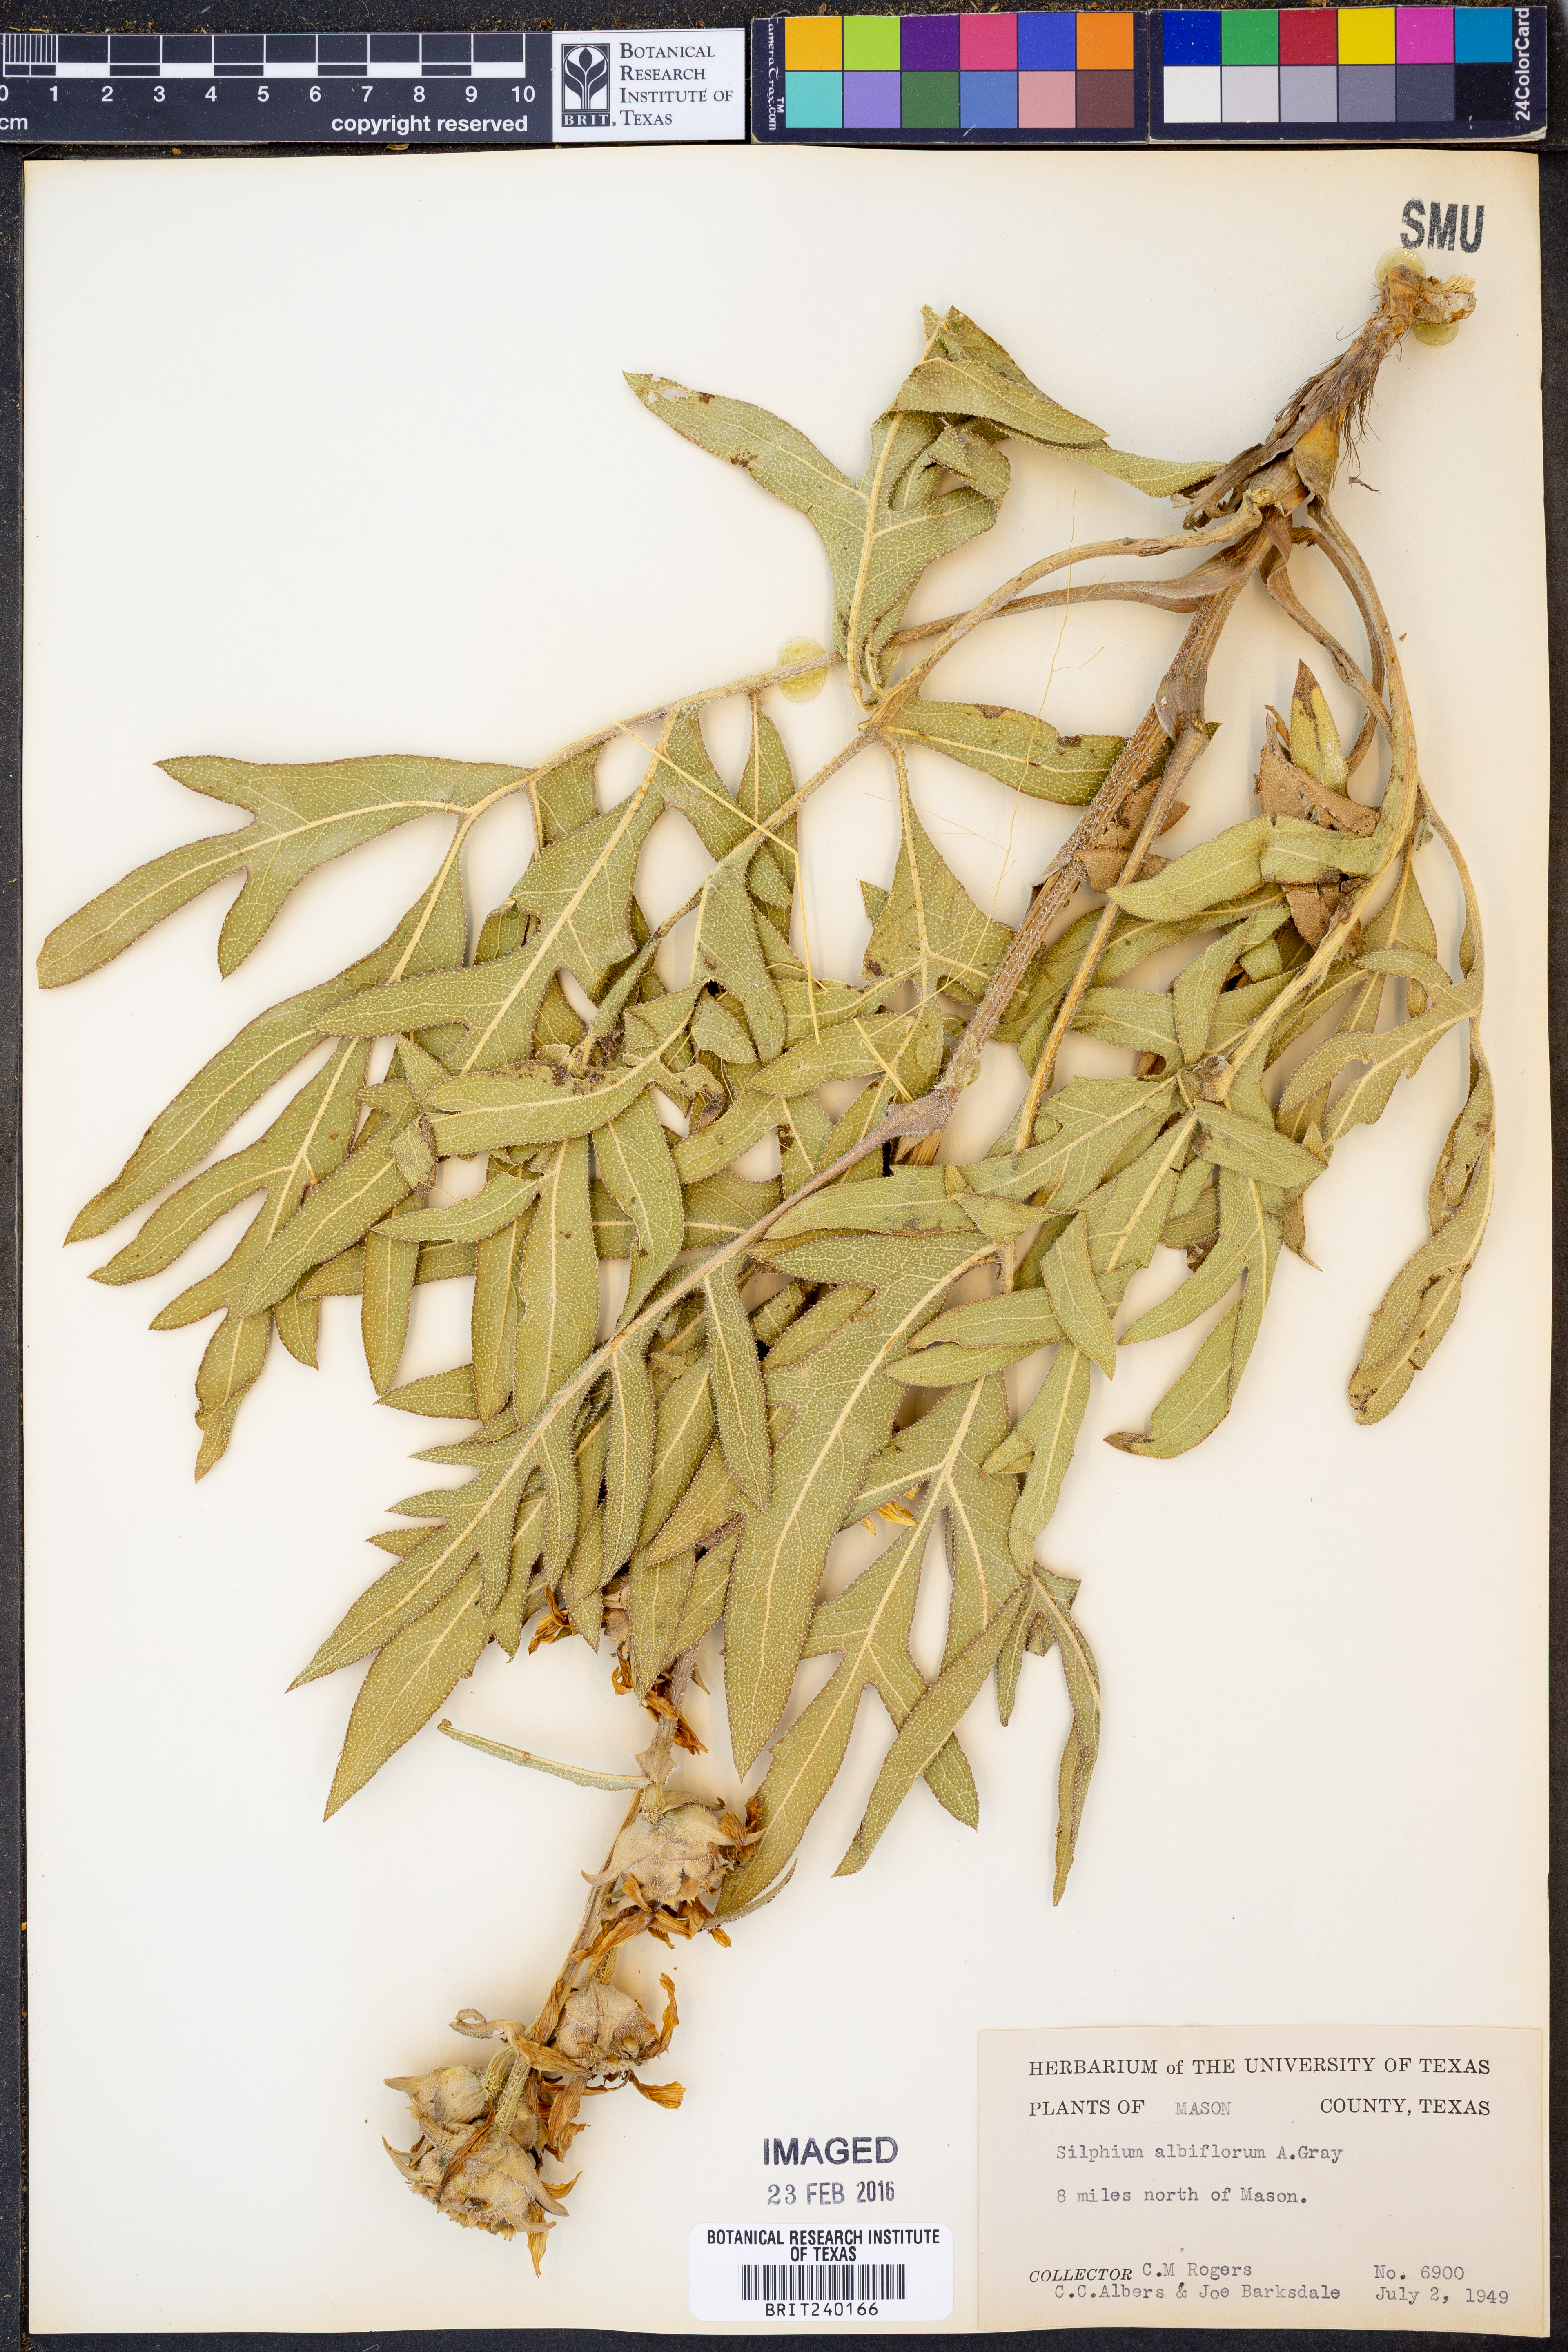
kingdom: Plantae
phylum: Tracheophyta
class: Magnoliopsida
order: Asterales
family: Asteraceae
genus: Silphium
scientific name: Silphium albiflorum
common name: White rosinweed
